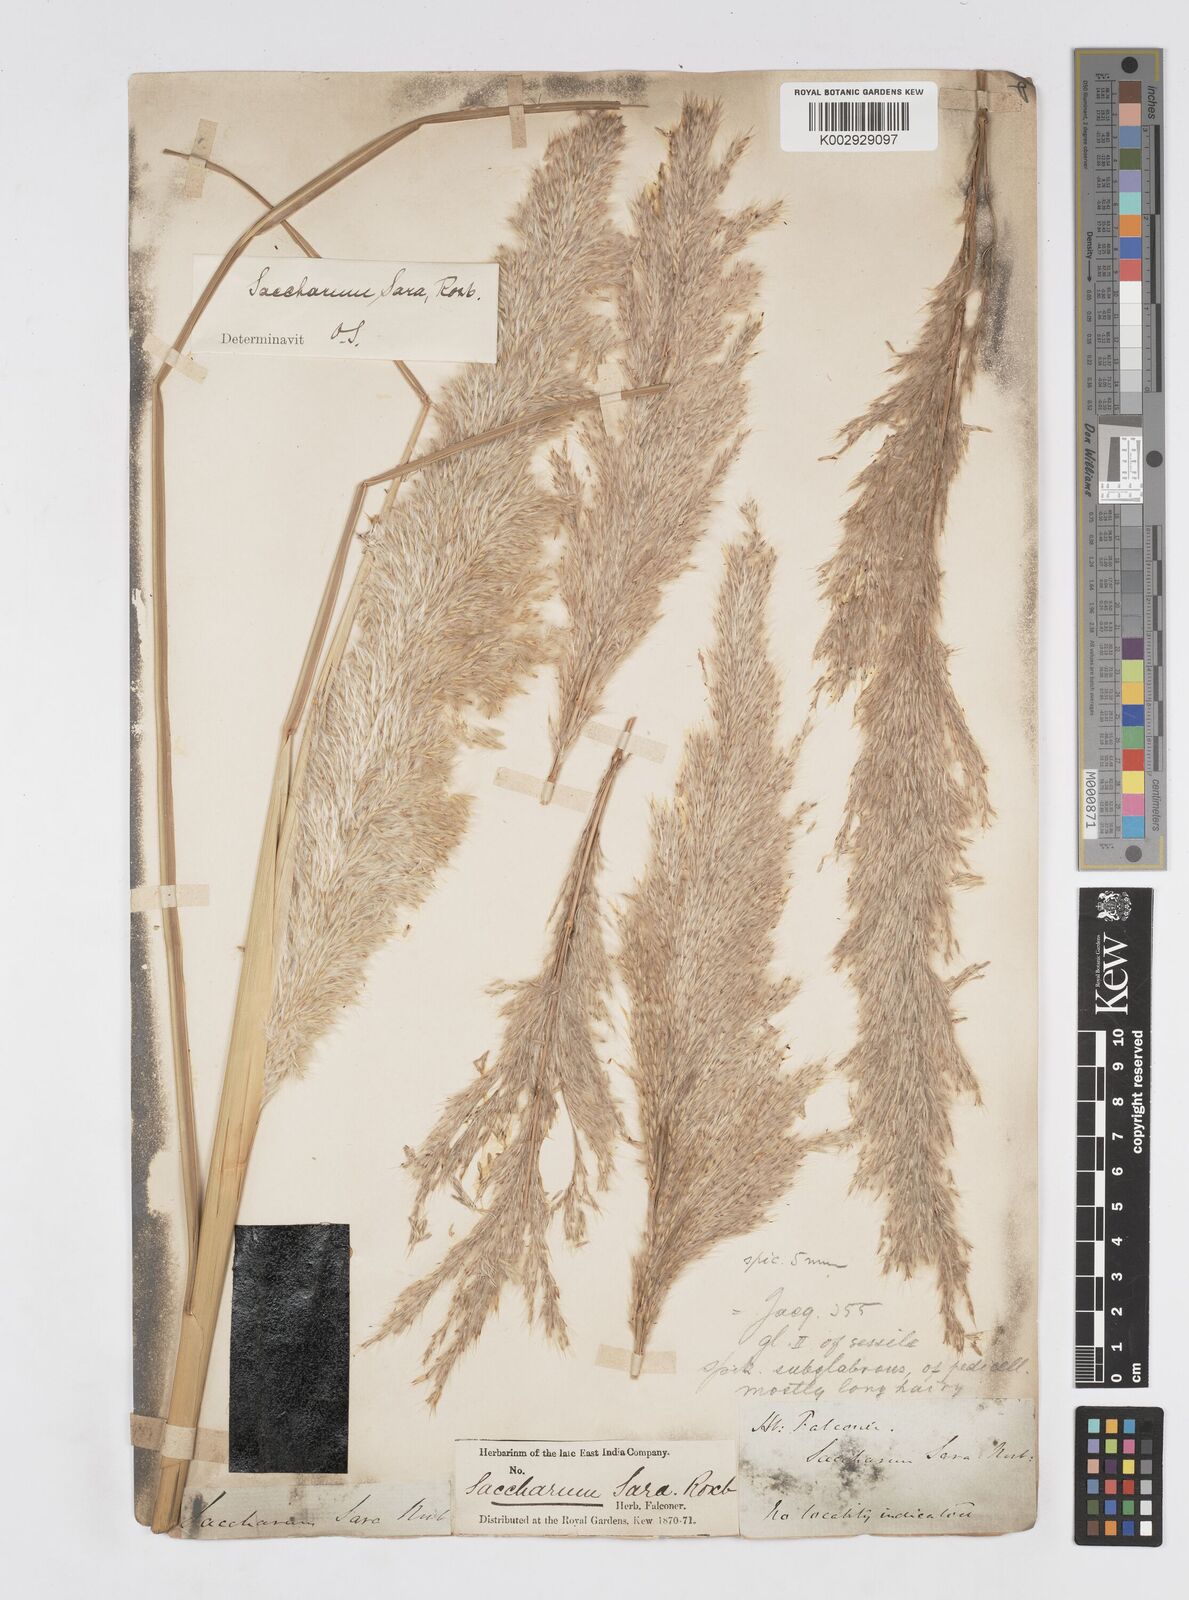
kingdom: Plantae
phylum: Tracheophyta
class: Liliopsida
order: Poales
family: Poaceae
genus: Tripidium
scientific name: Tripidium bengalense
